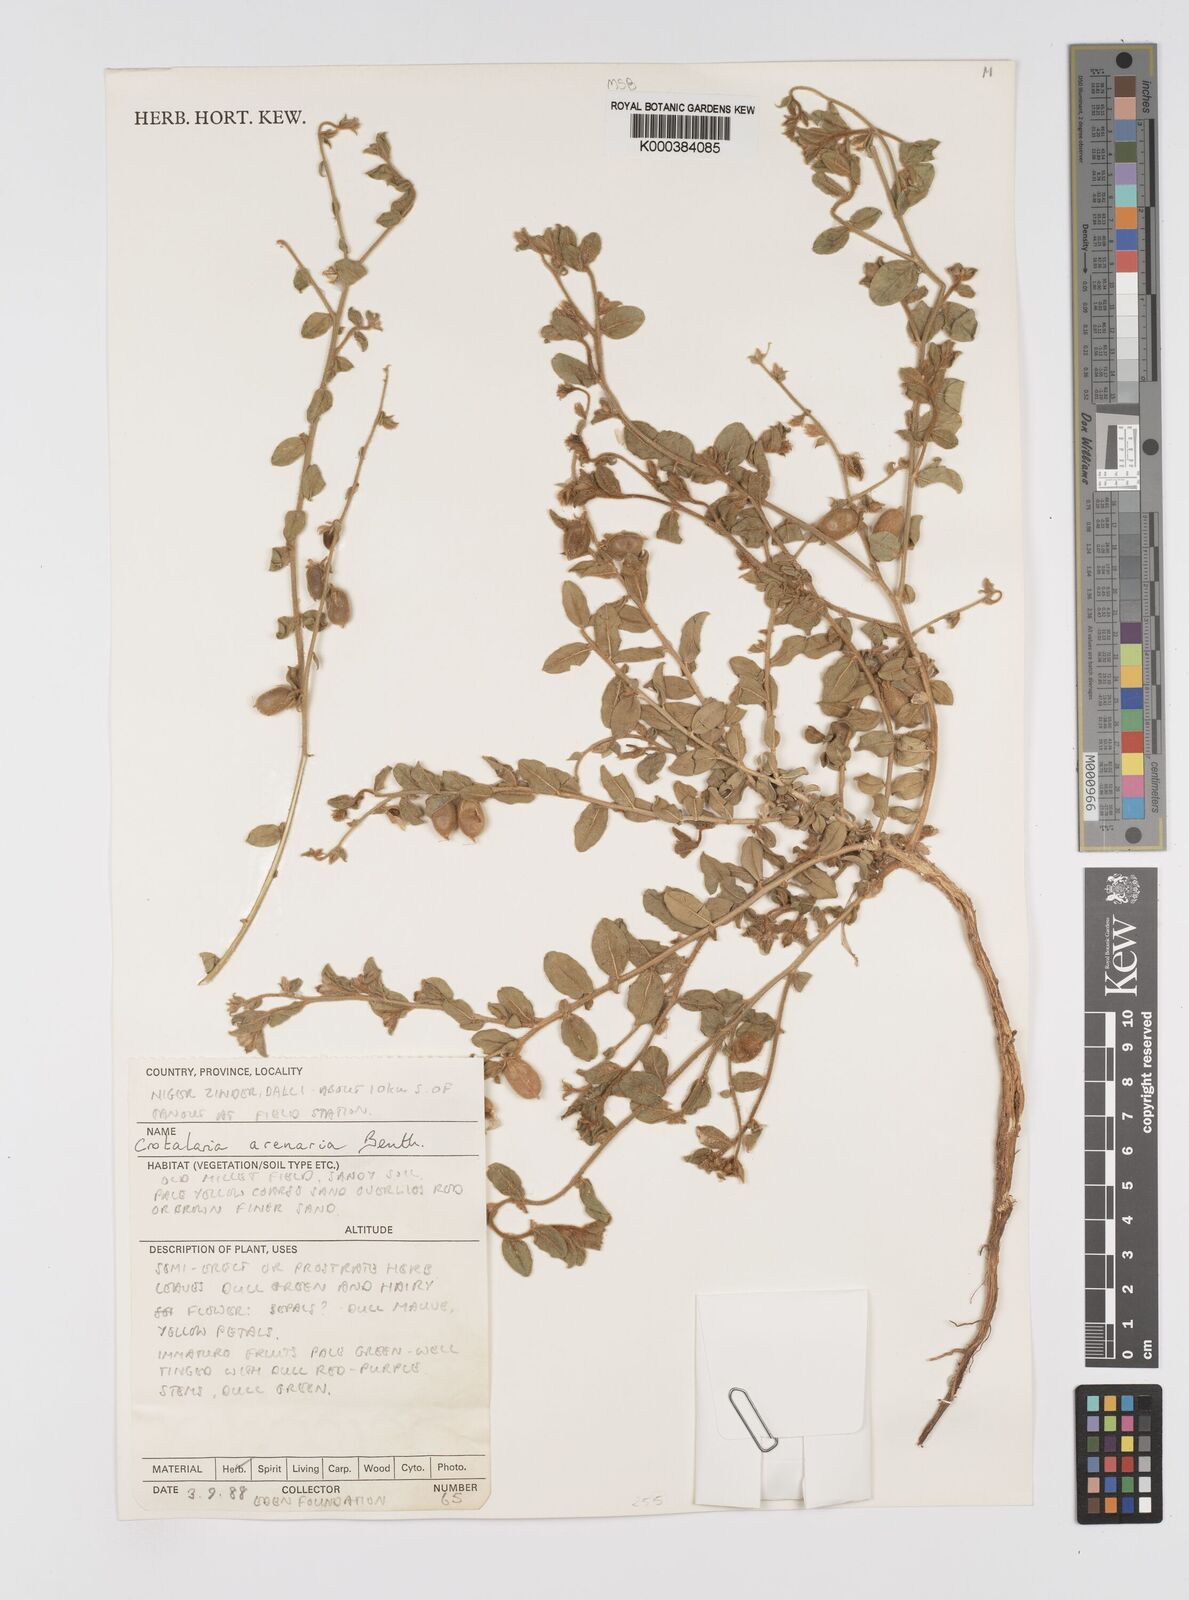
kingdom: Plantae
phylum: Tracheophyta
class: Magnoliopsida
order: Fabales
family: Fabaceae
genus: Crotalaria
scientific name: Crotalaria arenaria
